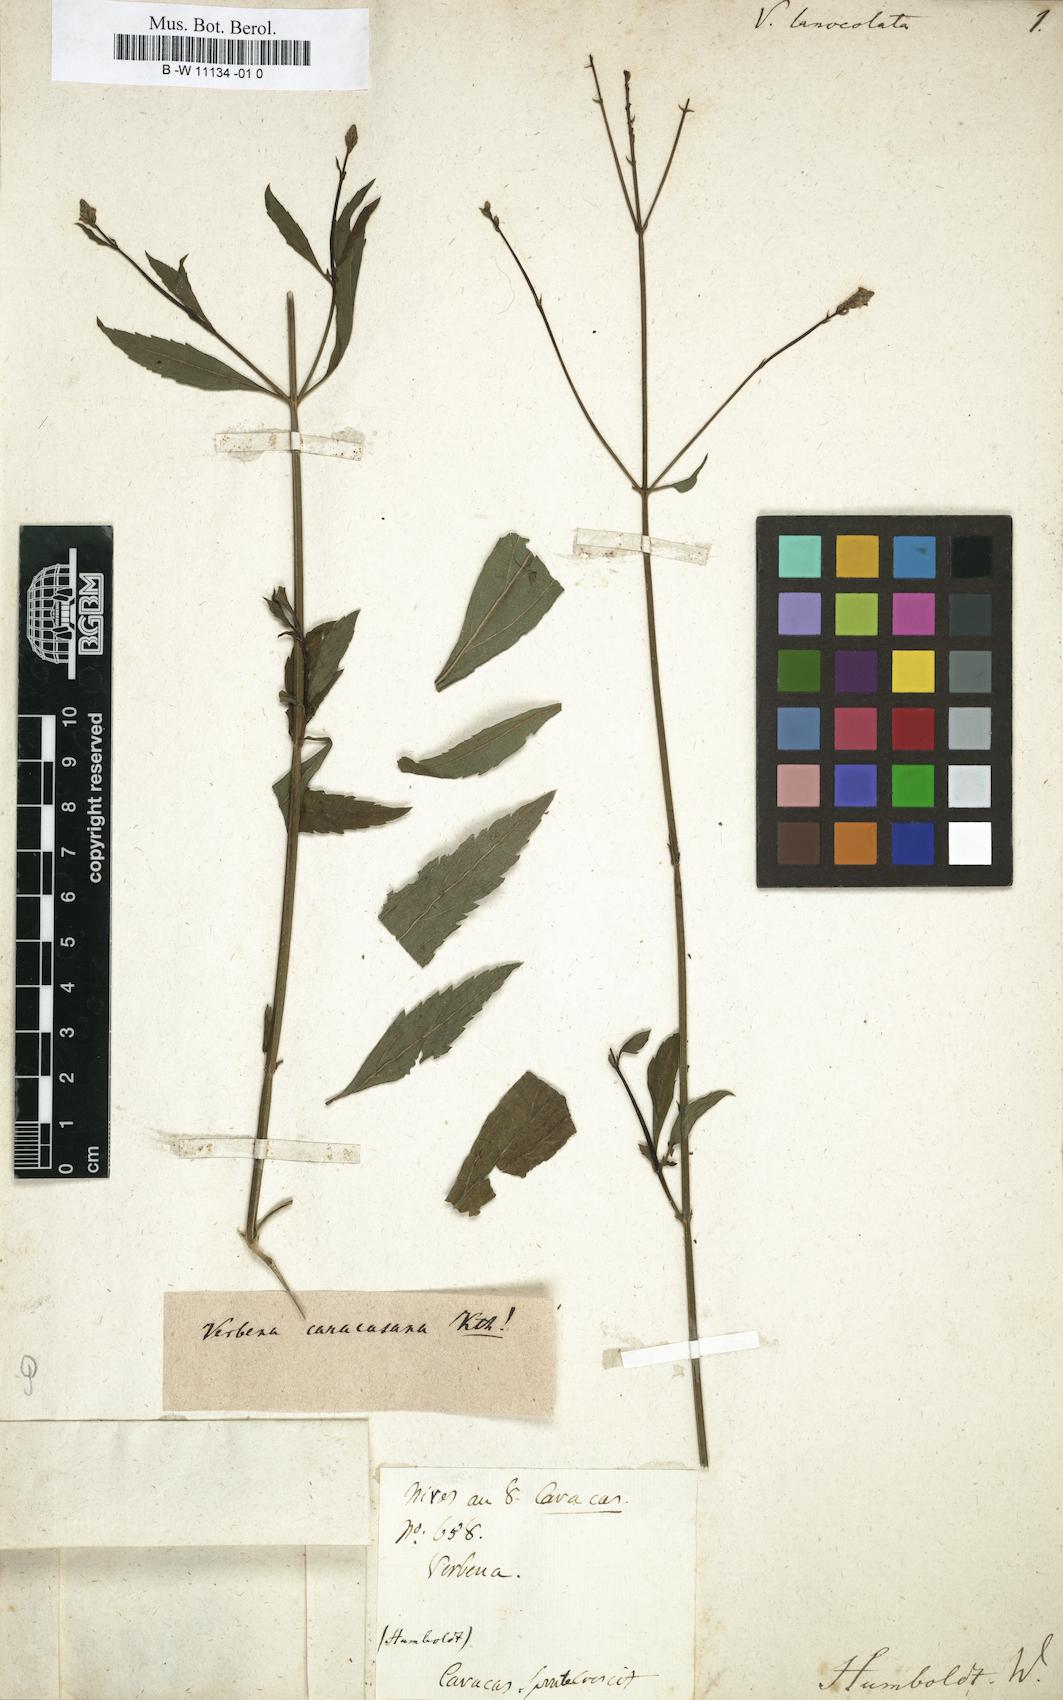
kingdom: Plantae
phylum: Tracheophyta
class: Magnoliopsida
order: Lamiales
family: Verbenaceae
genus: Verbena
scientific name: Verbena litoralis
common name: Seashore vervain
